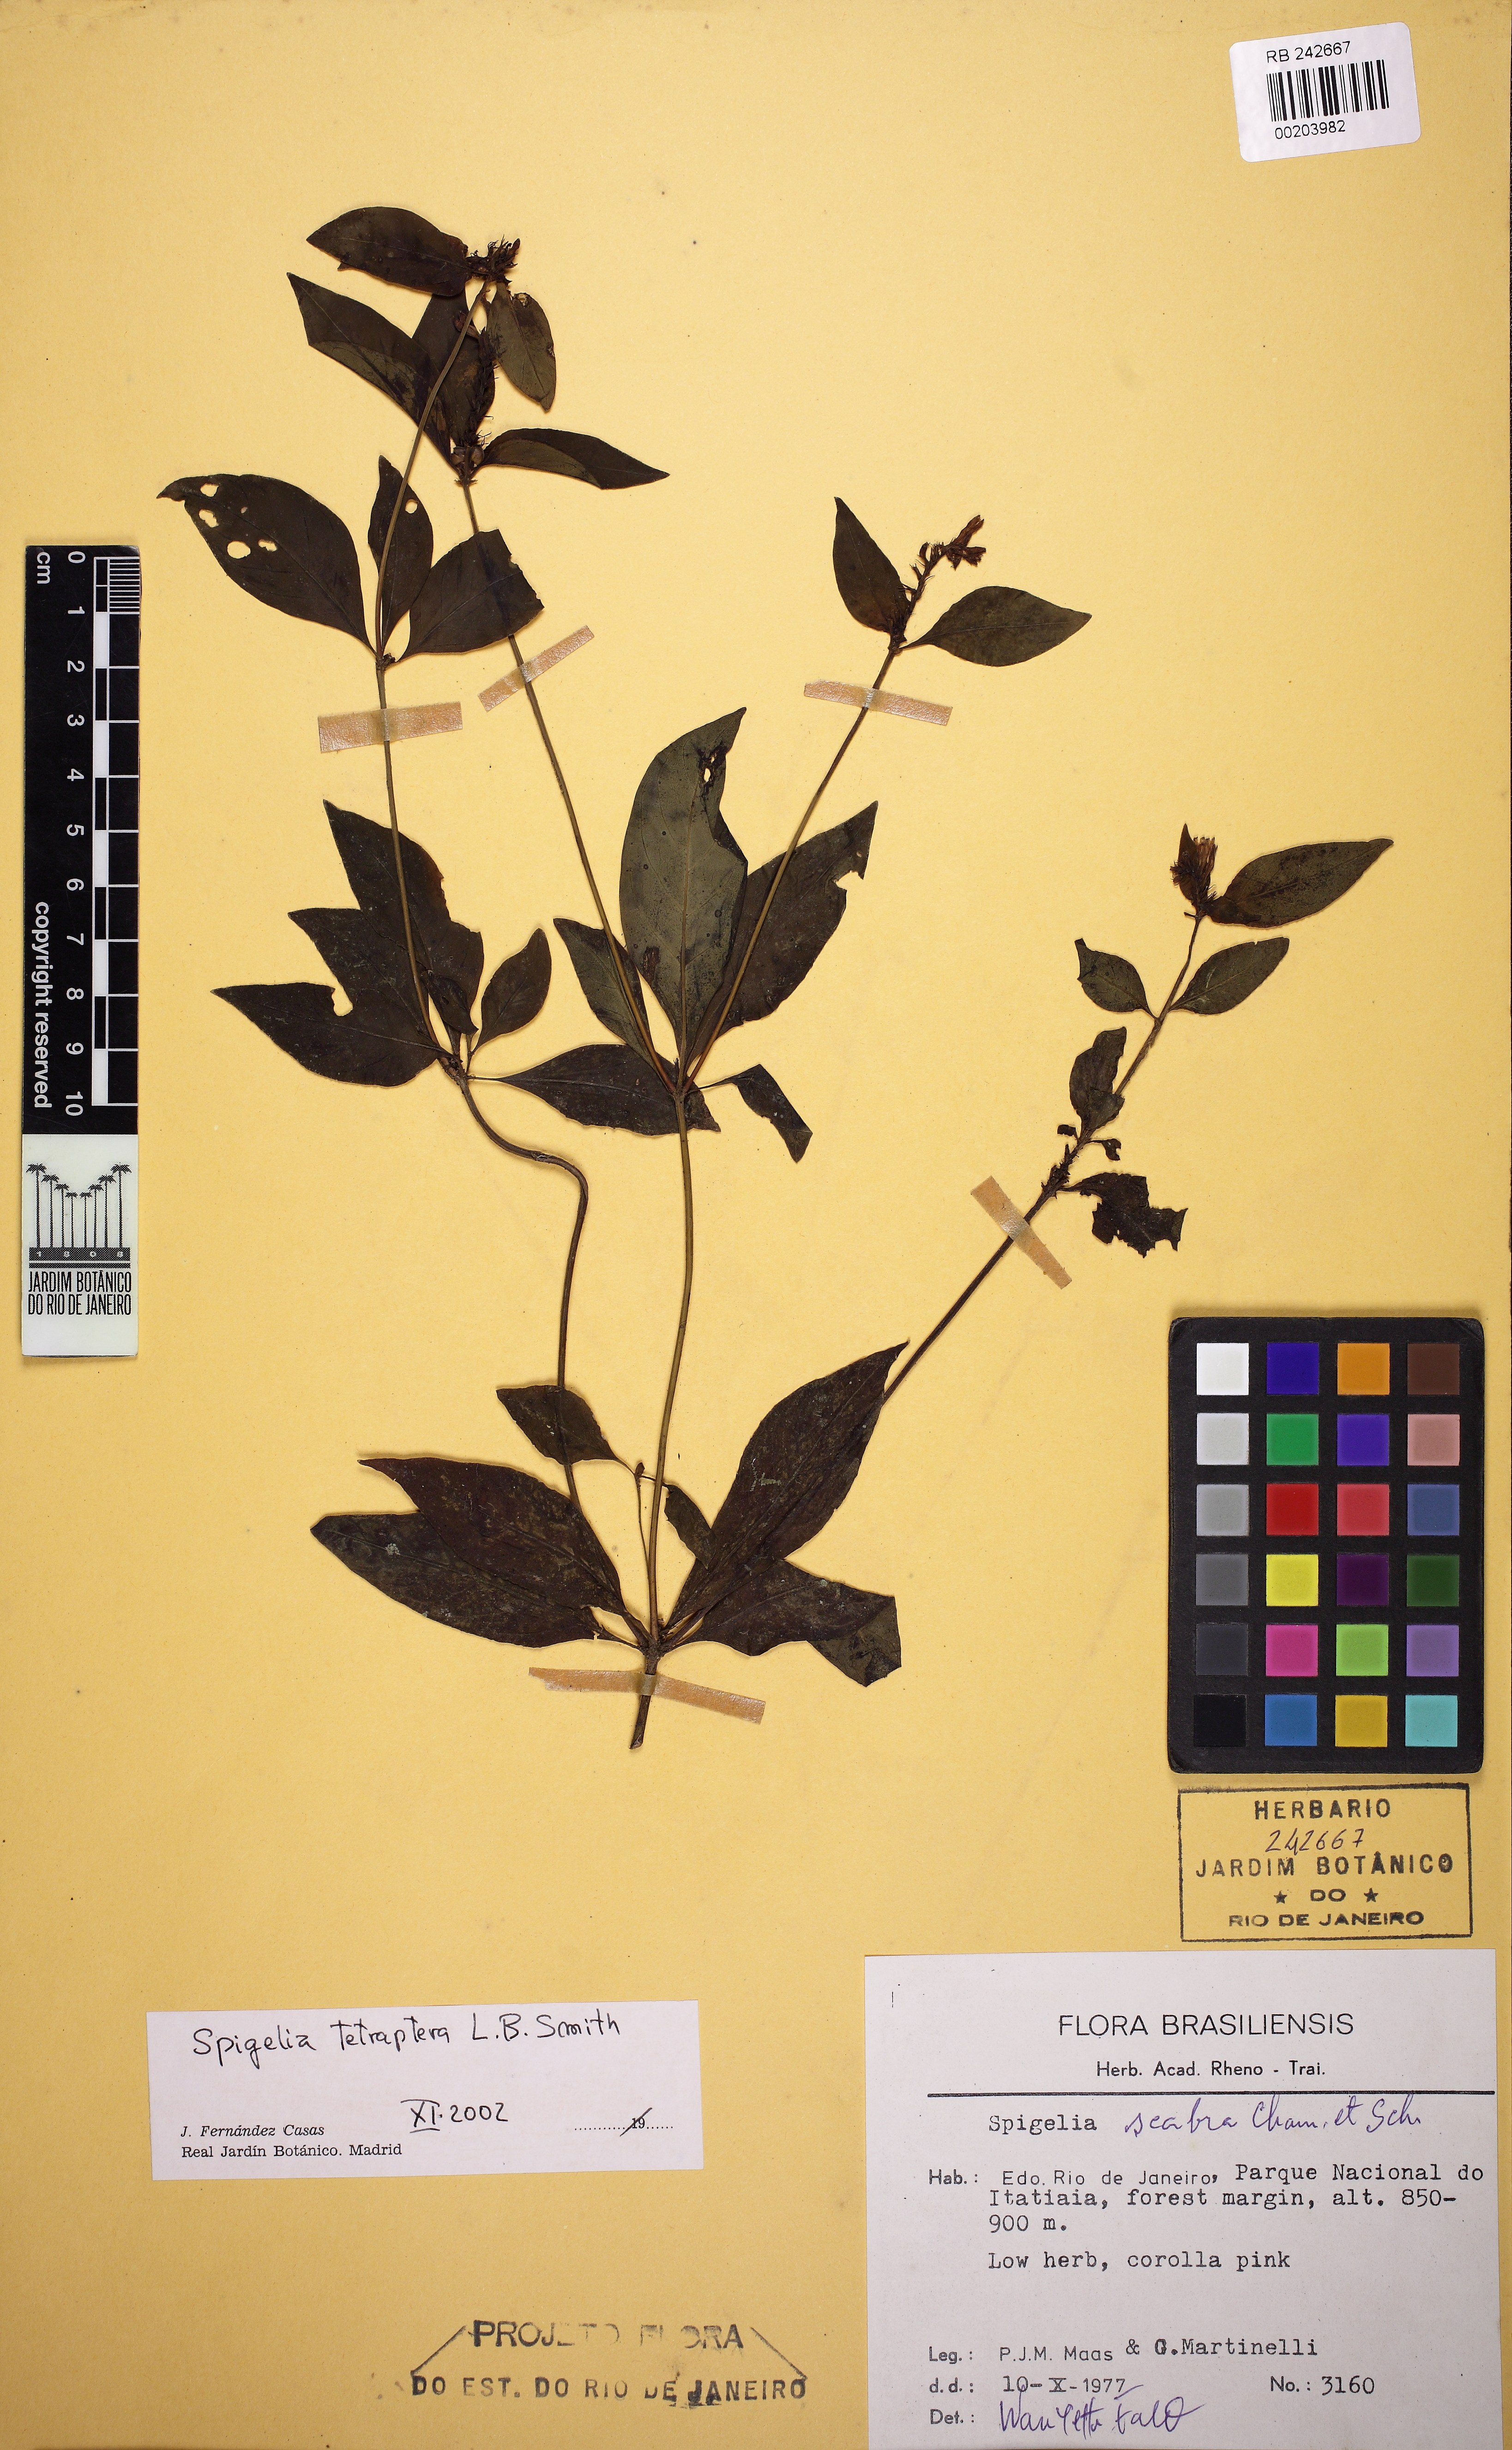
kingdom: Plantae
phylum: Tracheophyta
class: Magnoliopsida
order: Gentianales
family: Loganiaceae
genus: Spigelia
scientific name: Spigelia tetraptera
